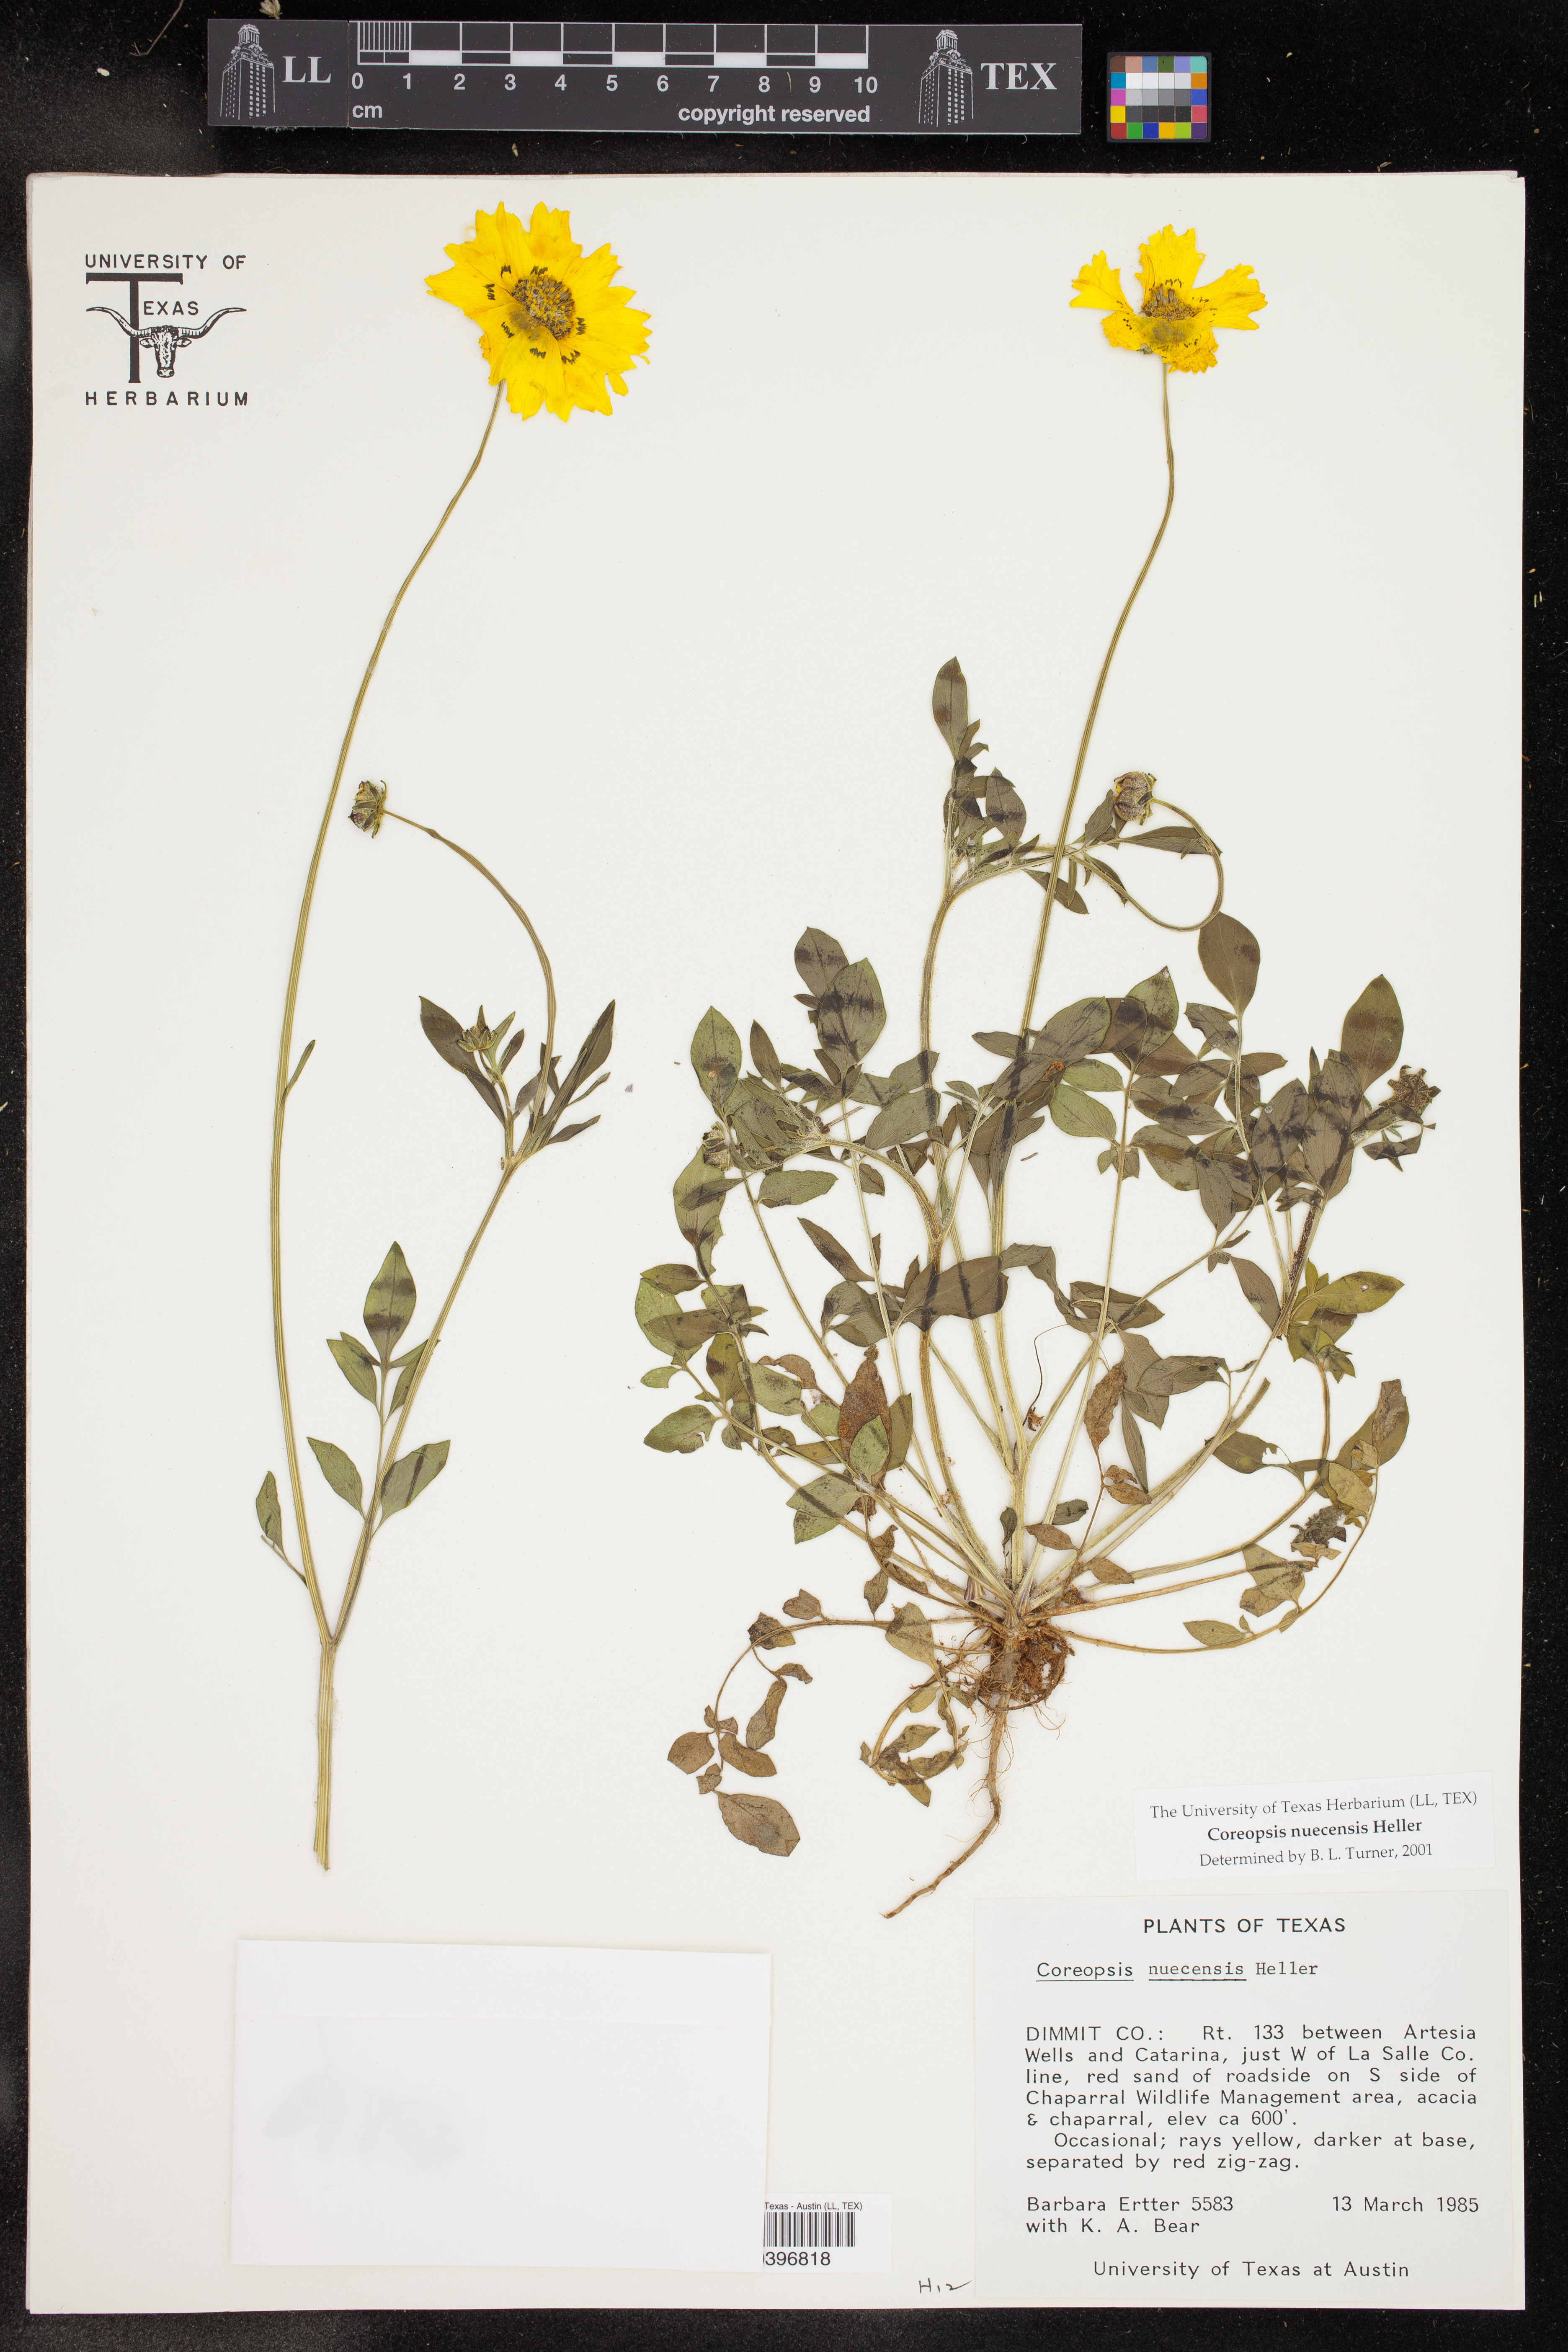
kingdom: Plantae
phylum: Tracheophyta
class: Magnoliopsida
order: Asterales
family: Asteraceae
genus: Coreopsis
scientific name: Coreopsis nuecensis
